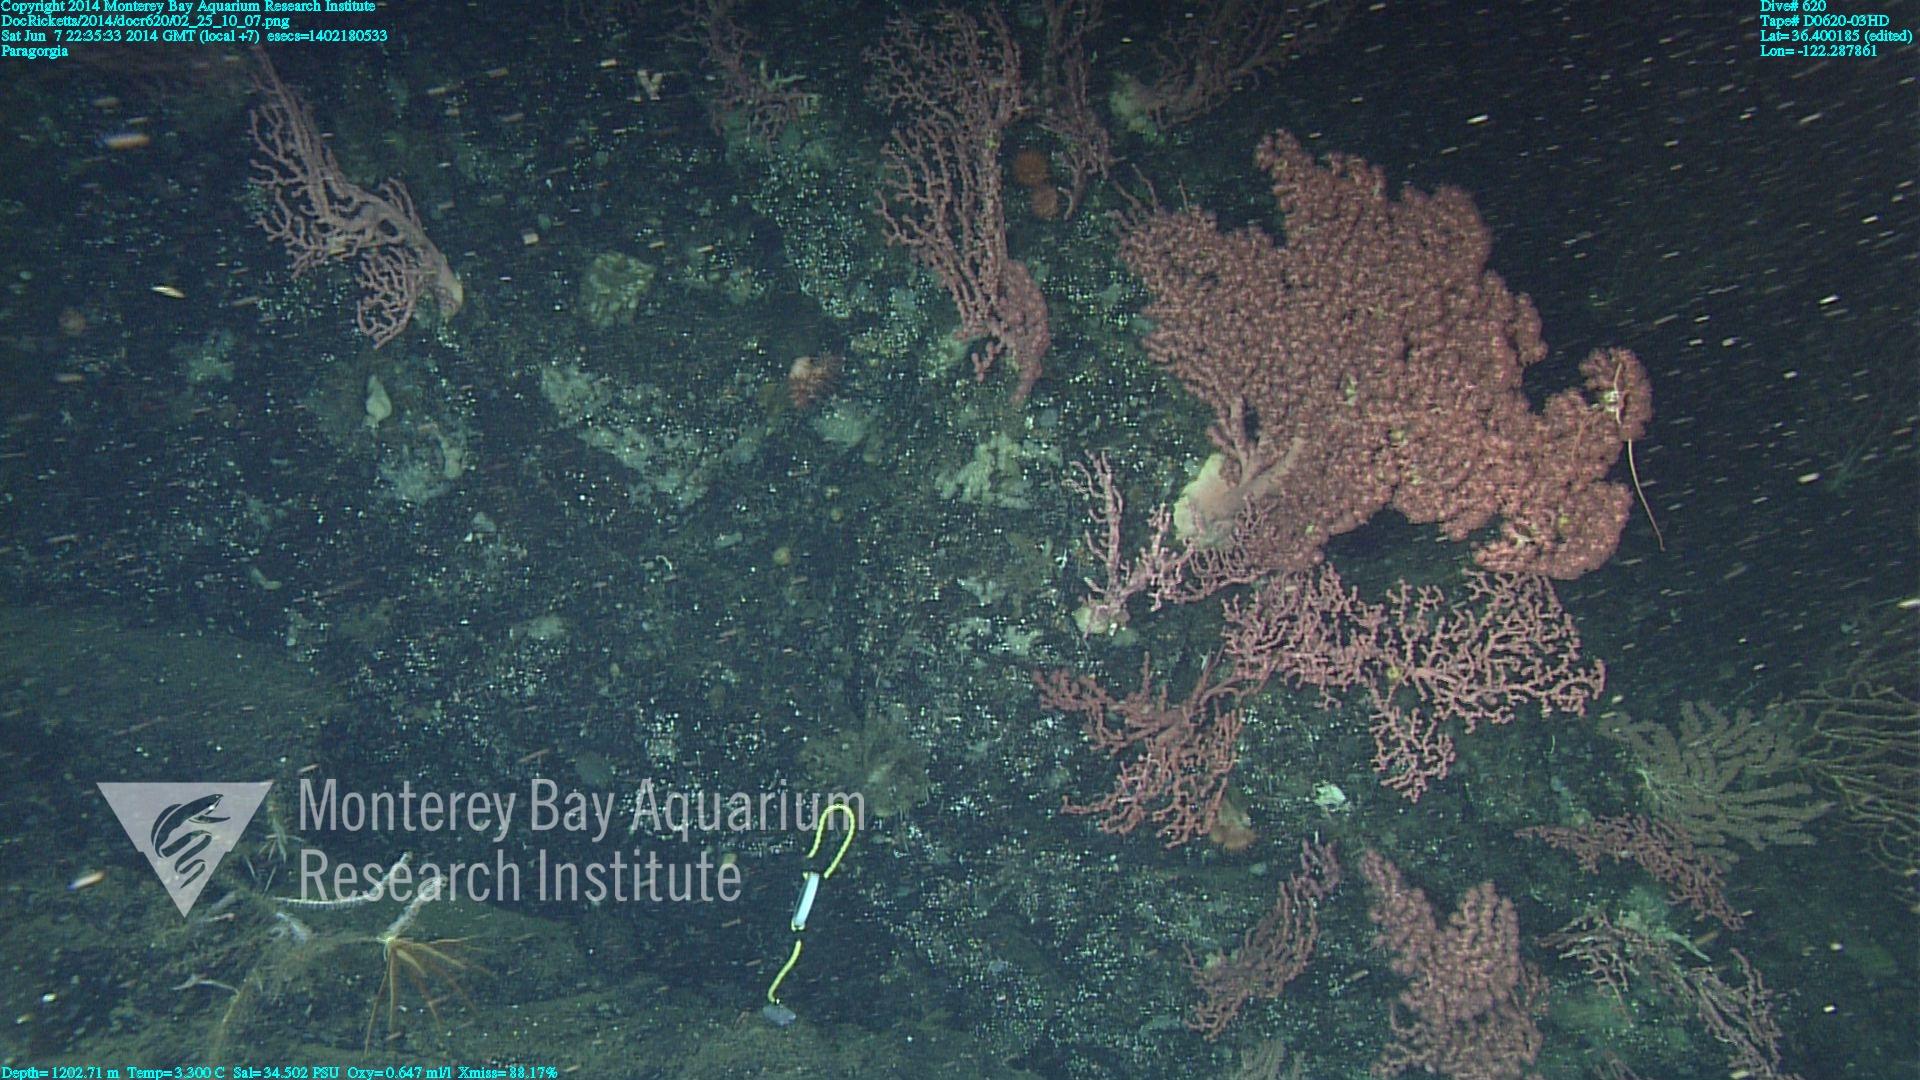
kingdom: Animalia
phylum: Cnidaria
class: Anthozoa
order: Scleralcyonacea
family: Coralliidae
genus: Paragorgia
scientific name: Paragorgia arborea
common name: Bubble gum coral
